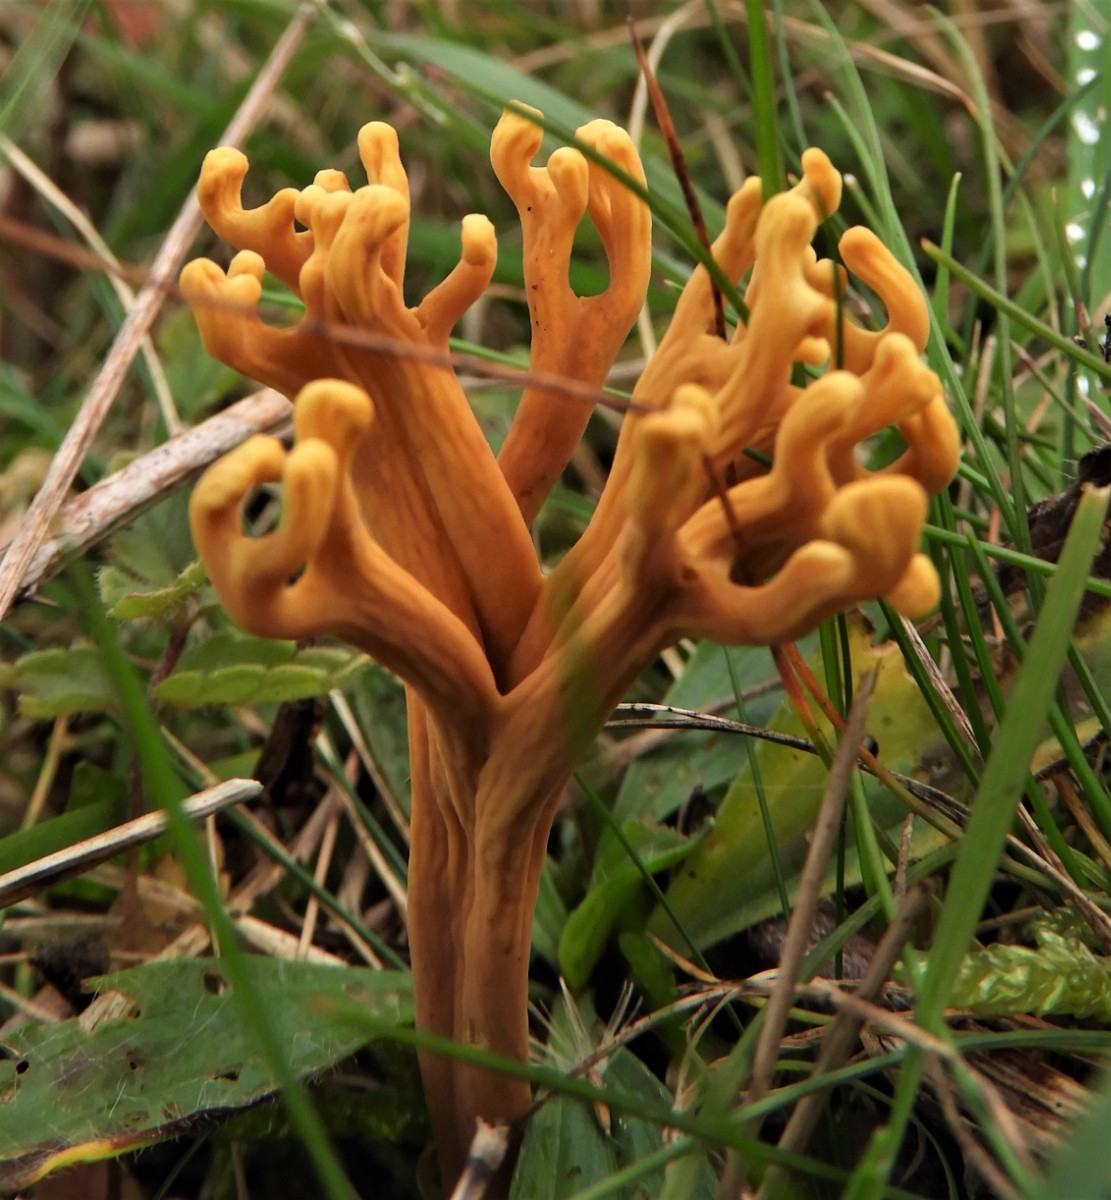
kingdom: Fungi
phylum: Basidiomycota
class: Agaricomycetes
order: Agaricales
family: Clavariaceae
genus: Clavulinopsis
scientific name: Clavulinopsis corniculata
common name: eng-køllesvamp
